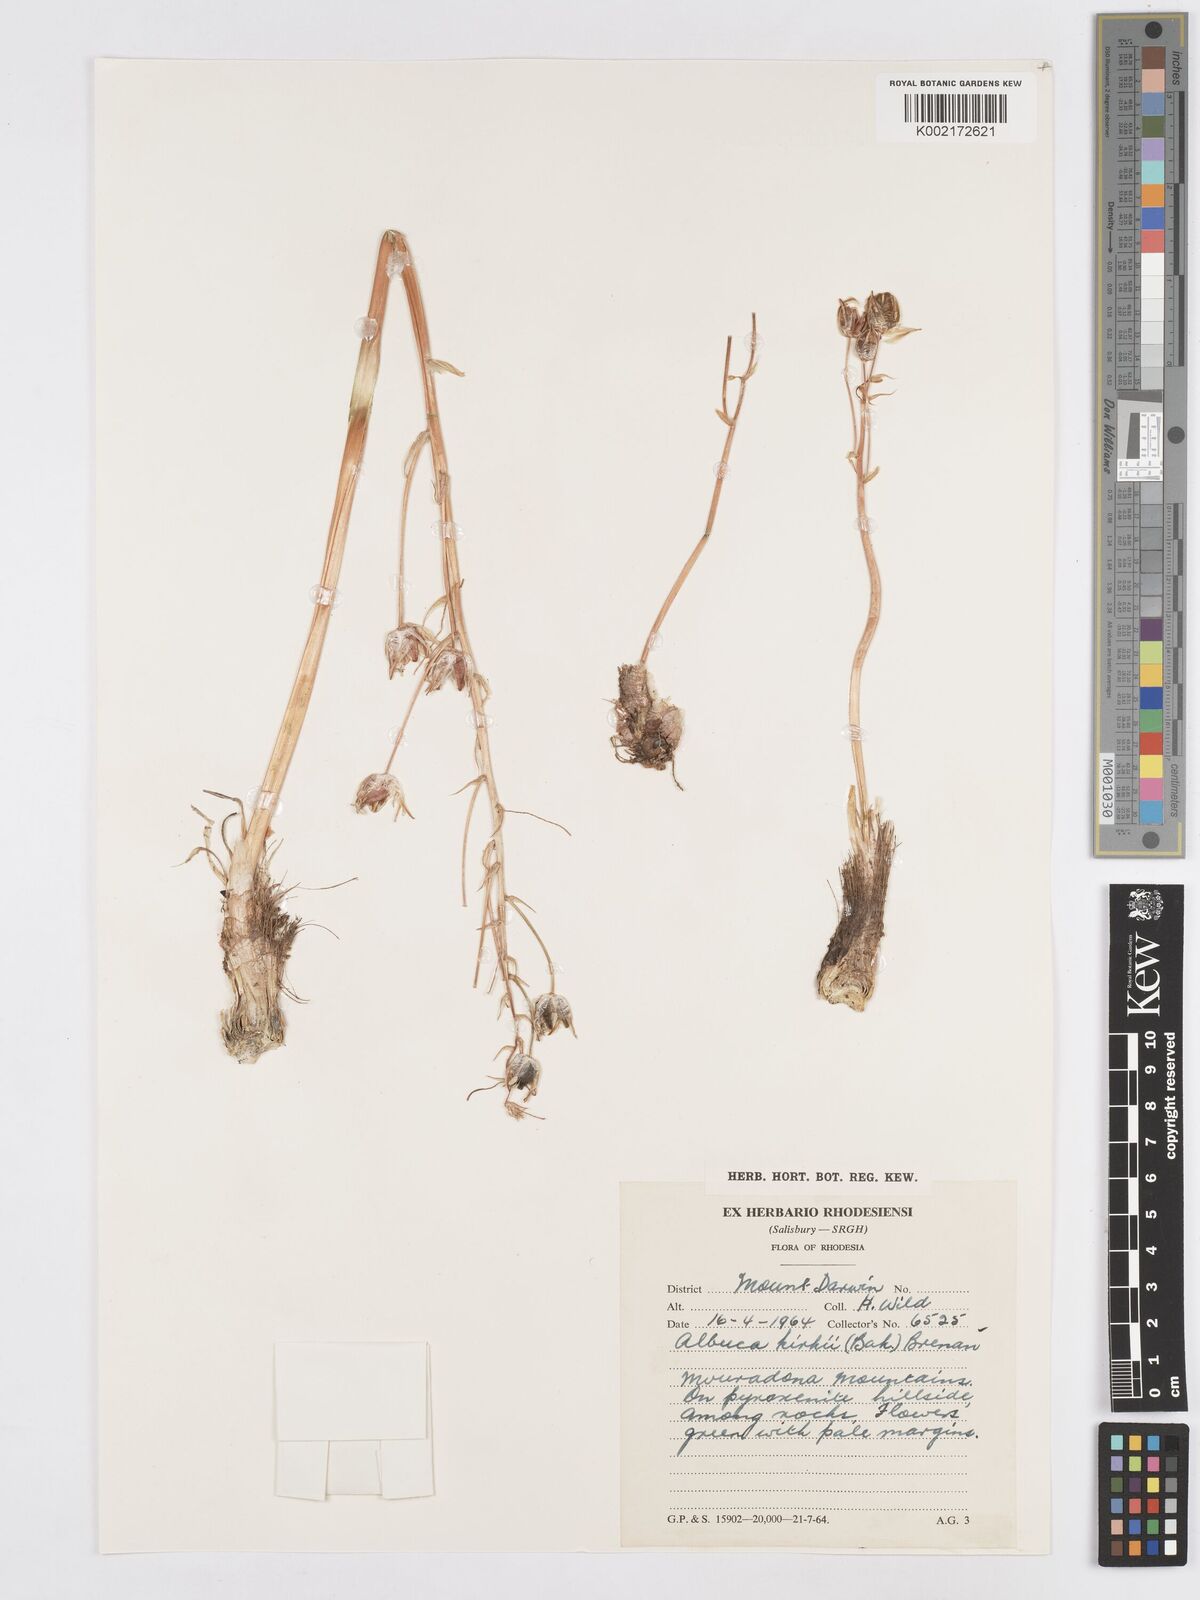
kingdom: Plantae
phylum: Tracheophyta
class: Liliopsida
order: Asparagales
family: Asparagaceae
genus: Albuca
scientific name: Albuca kirkii
